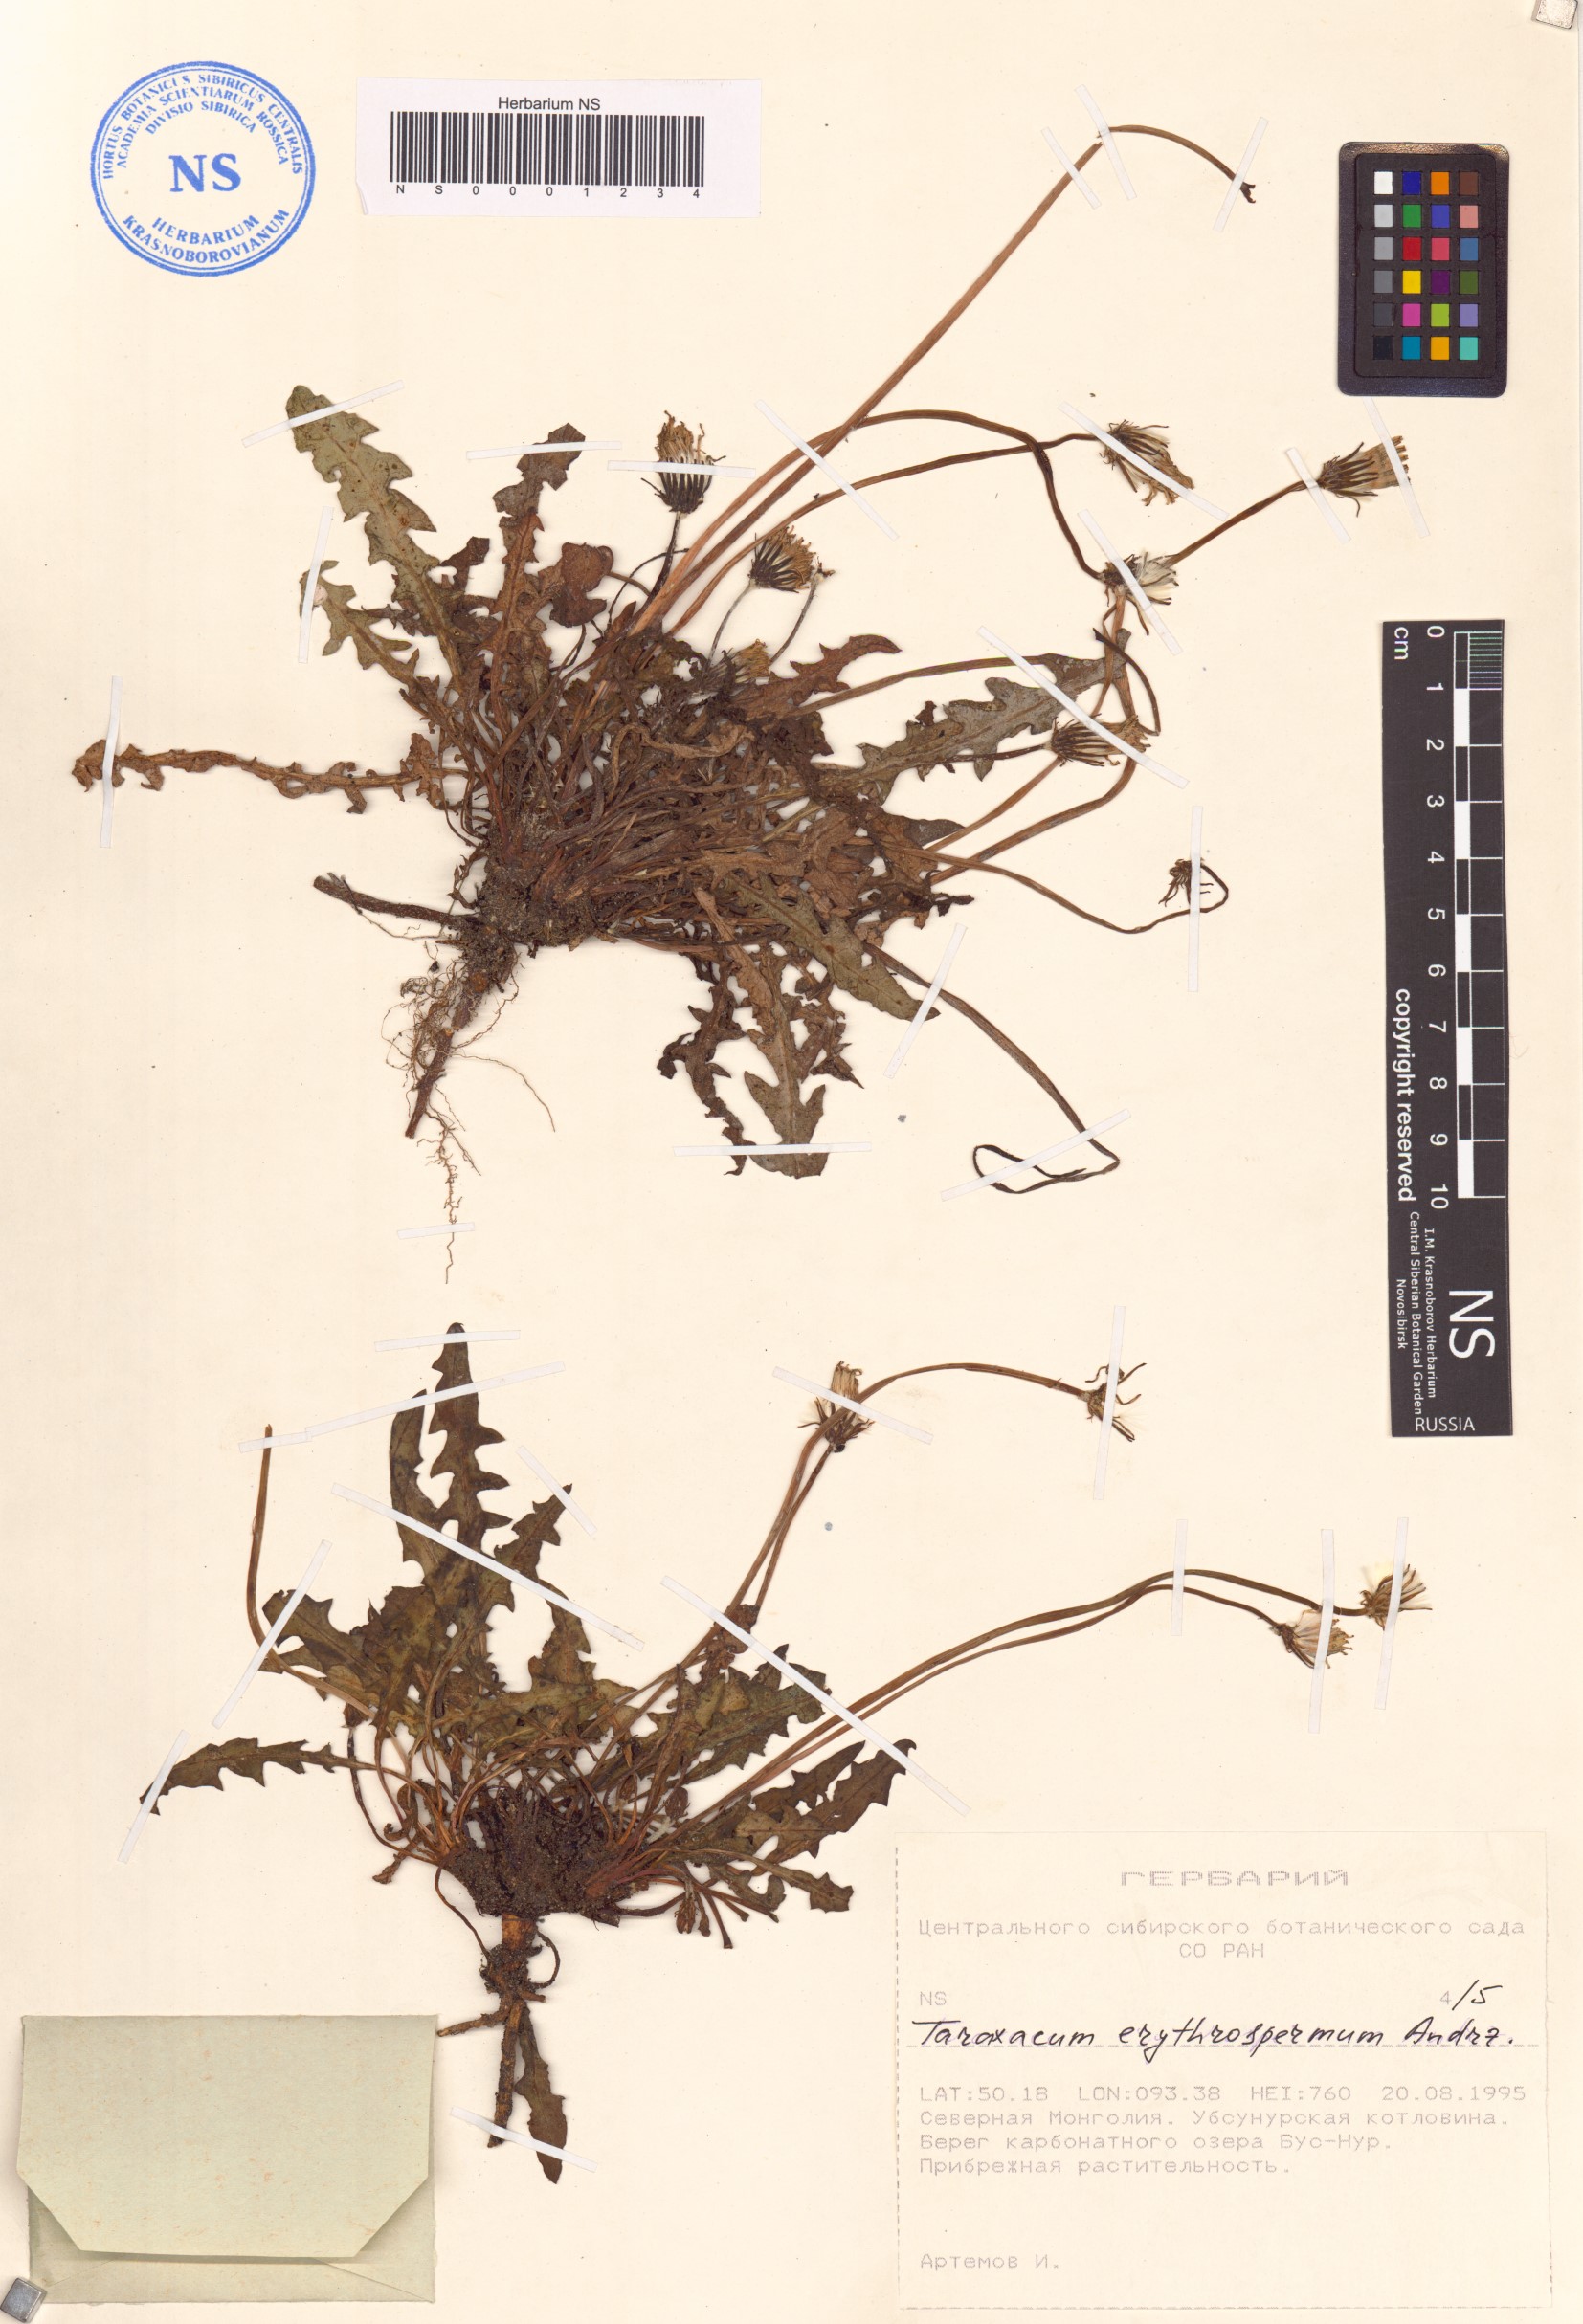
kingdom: Plantae
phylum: Tracheophyta
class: Magnoliopsida
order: Asterales
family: Asteraceae
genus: Taraxacum
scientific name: Taraxacum erythrospermum
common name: Rock dandelion
